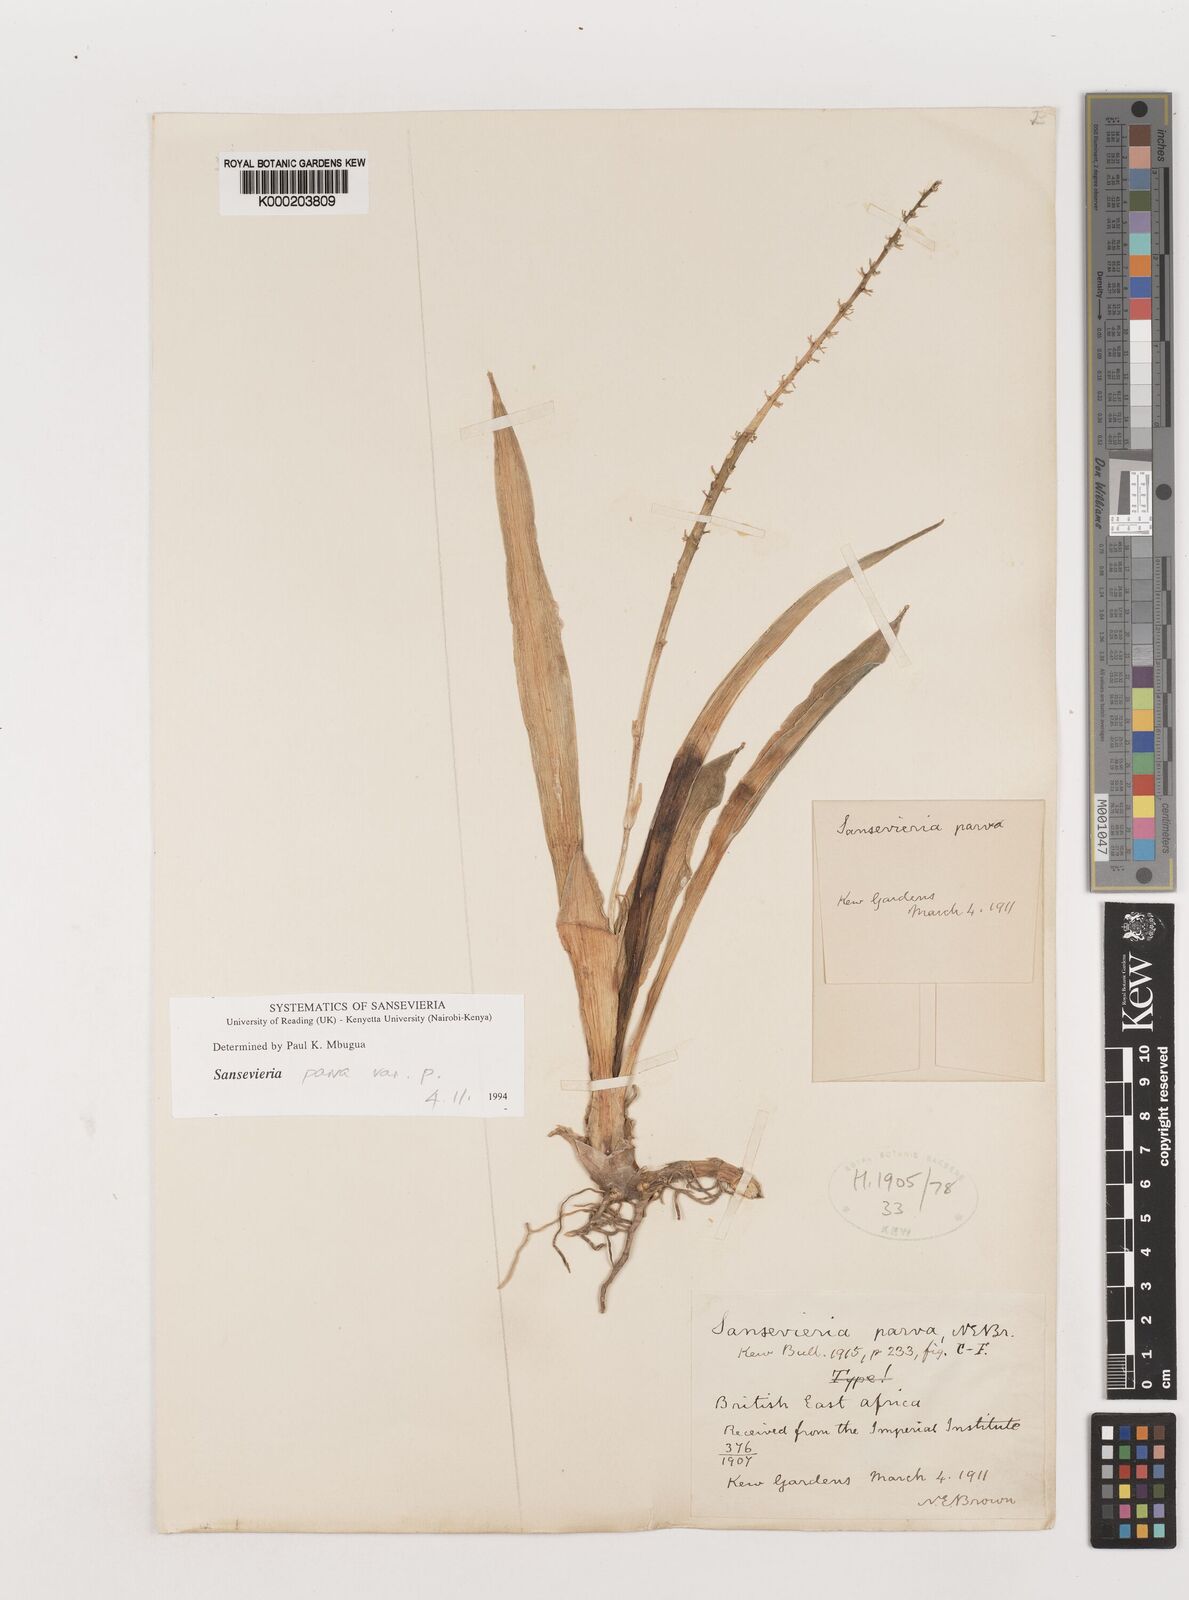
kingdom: Plantae
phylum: Tracheophyta
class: Liliopsida
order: Asparagales
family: Asparagaceae
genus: Dracaena
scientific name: Dracaena parva
